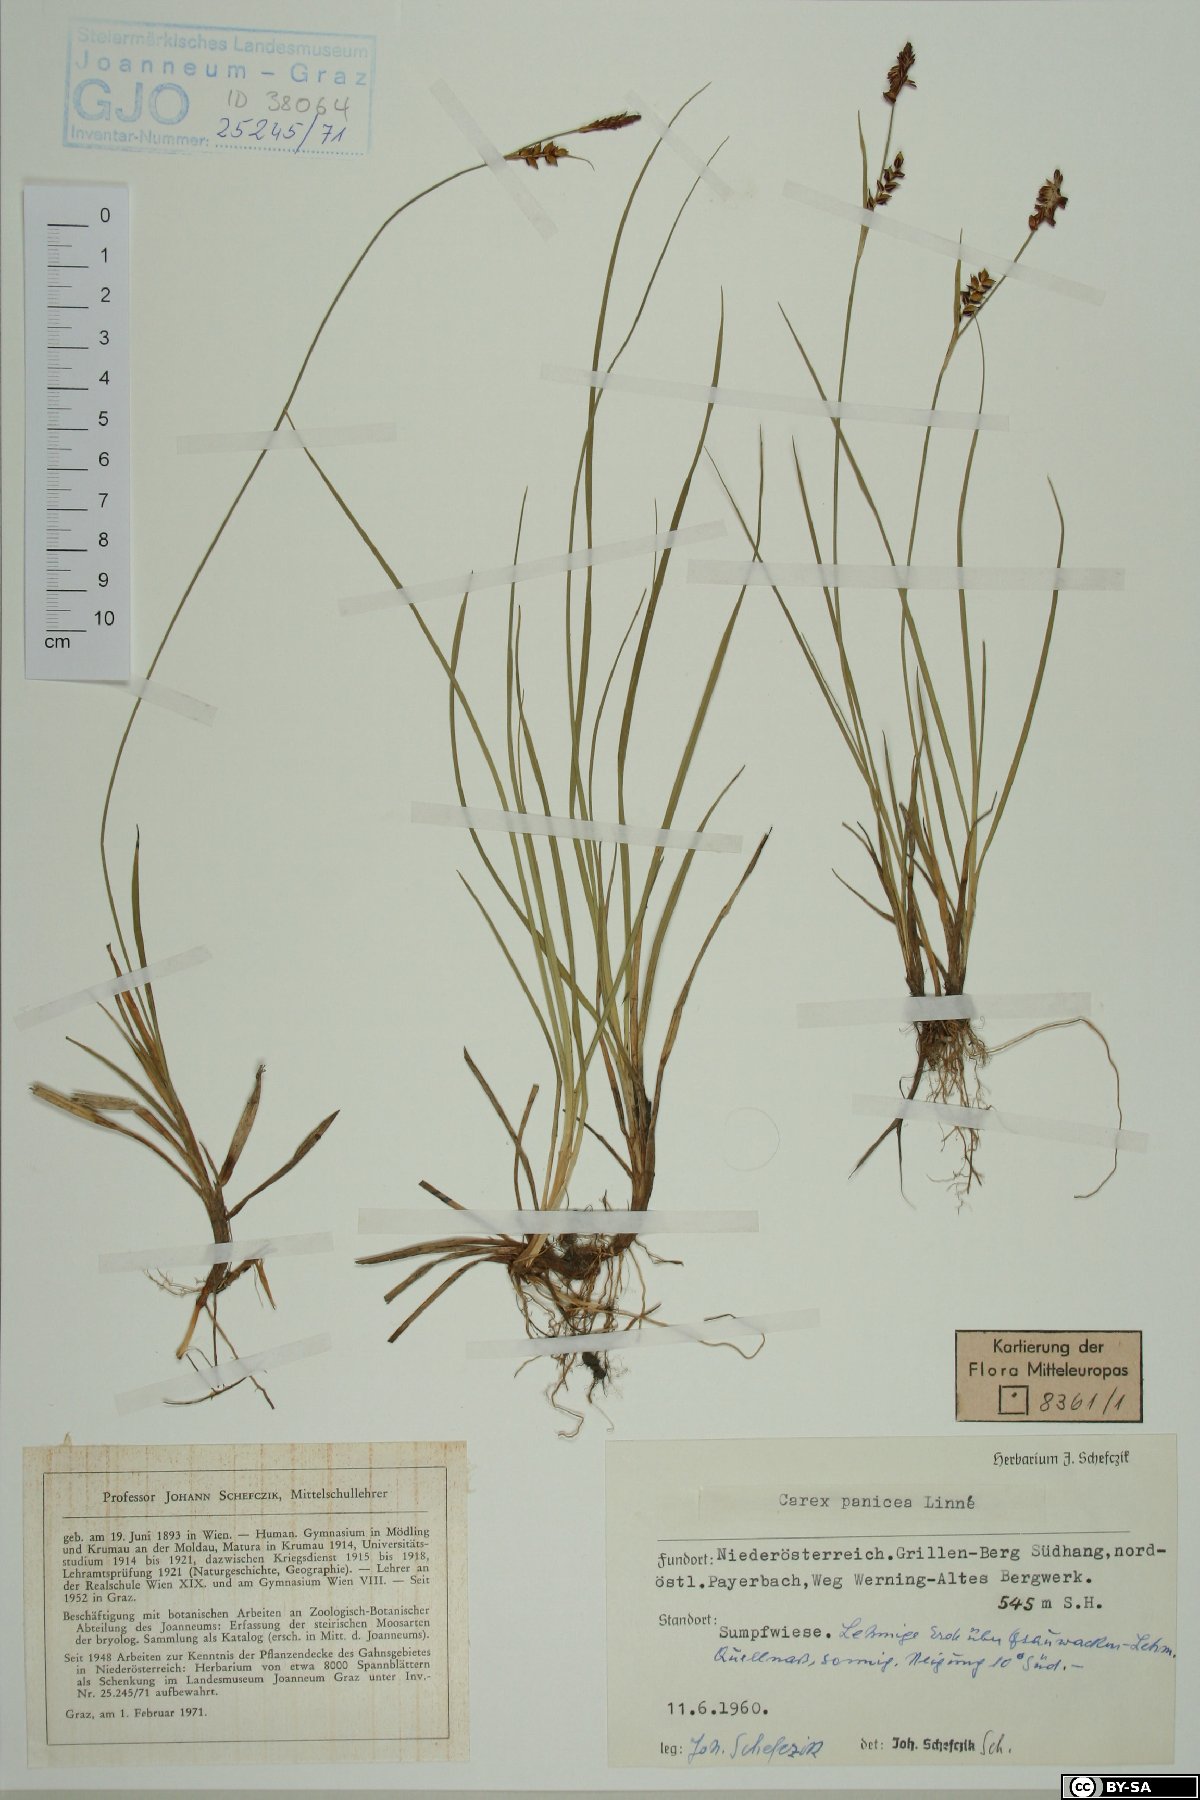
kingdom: Plantae
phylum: Tracheophyta
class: Liliopsida
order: Poales
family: Cyperaceae
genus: Carex
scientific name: Carex panicea
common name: Carnation sedge
